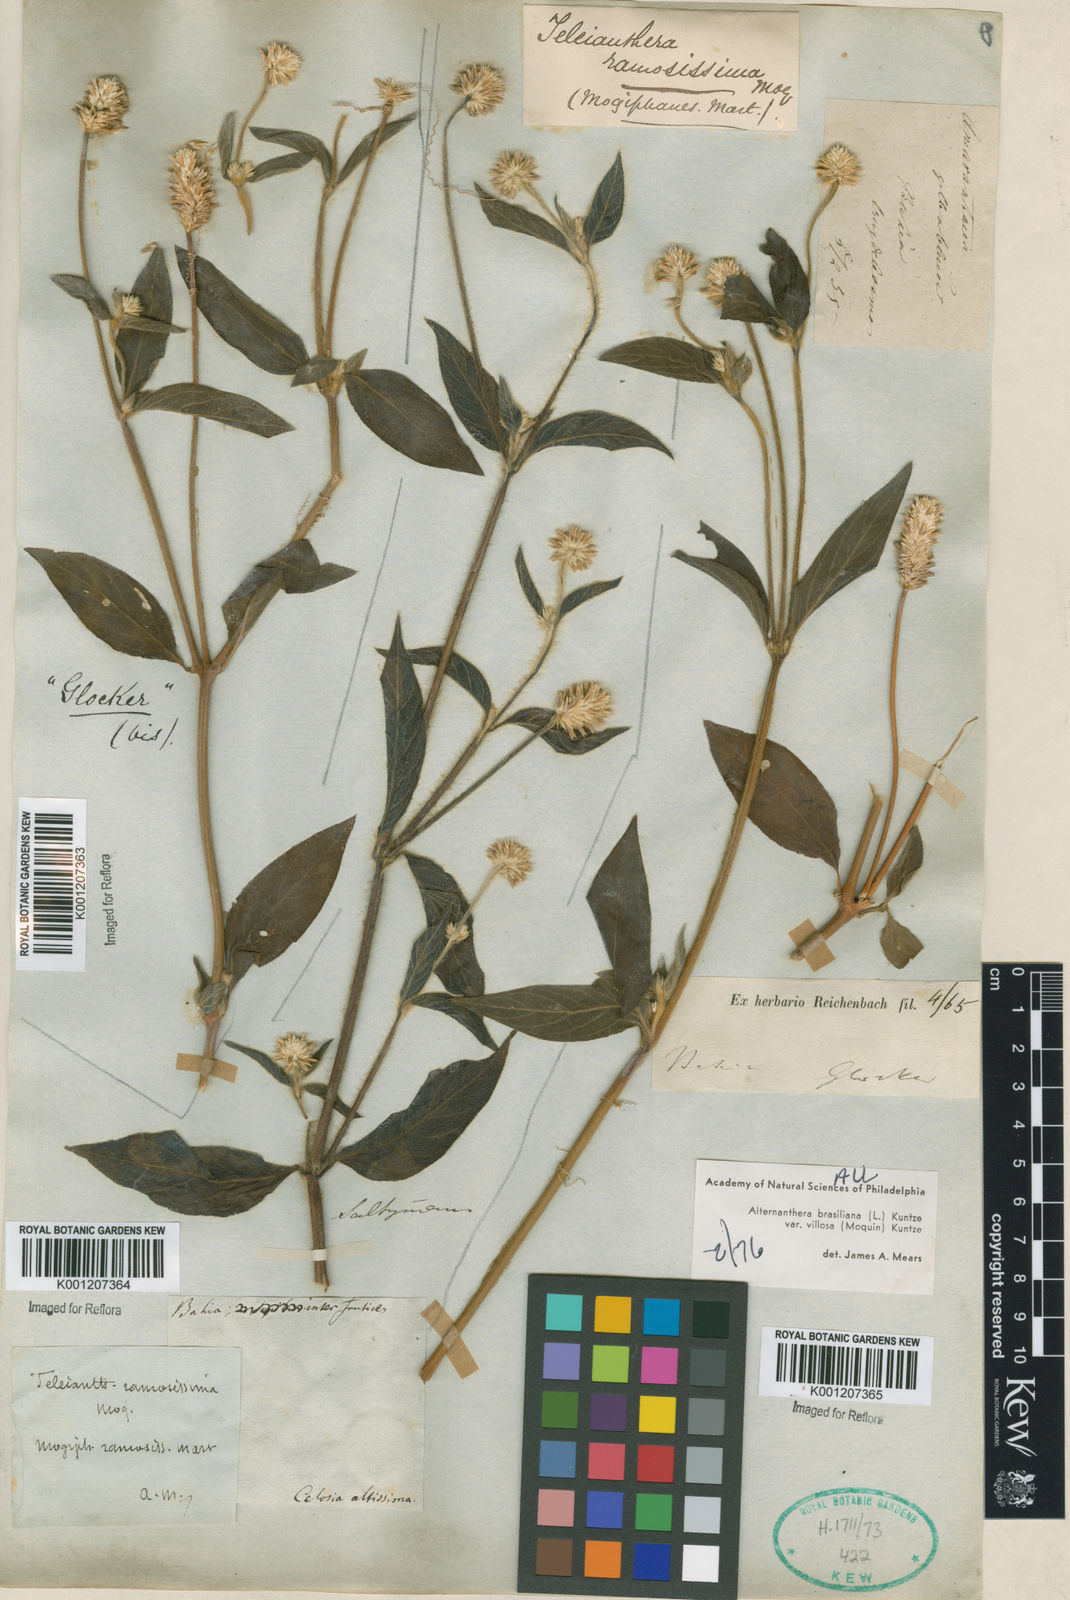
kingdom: Plantae
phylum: Tracheophyta
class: Magnoliopsida
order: Caryophyllales
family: Amaranthaceae
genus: Alternanthera
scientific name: Alternanthera brasiliana
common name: Brazilian joyweed
